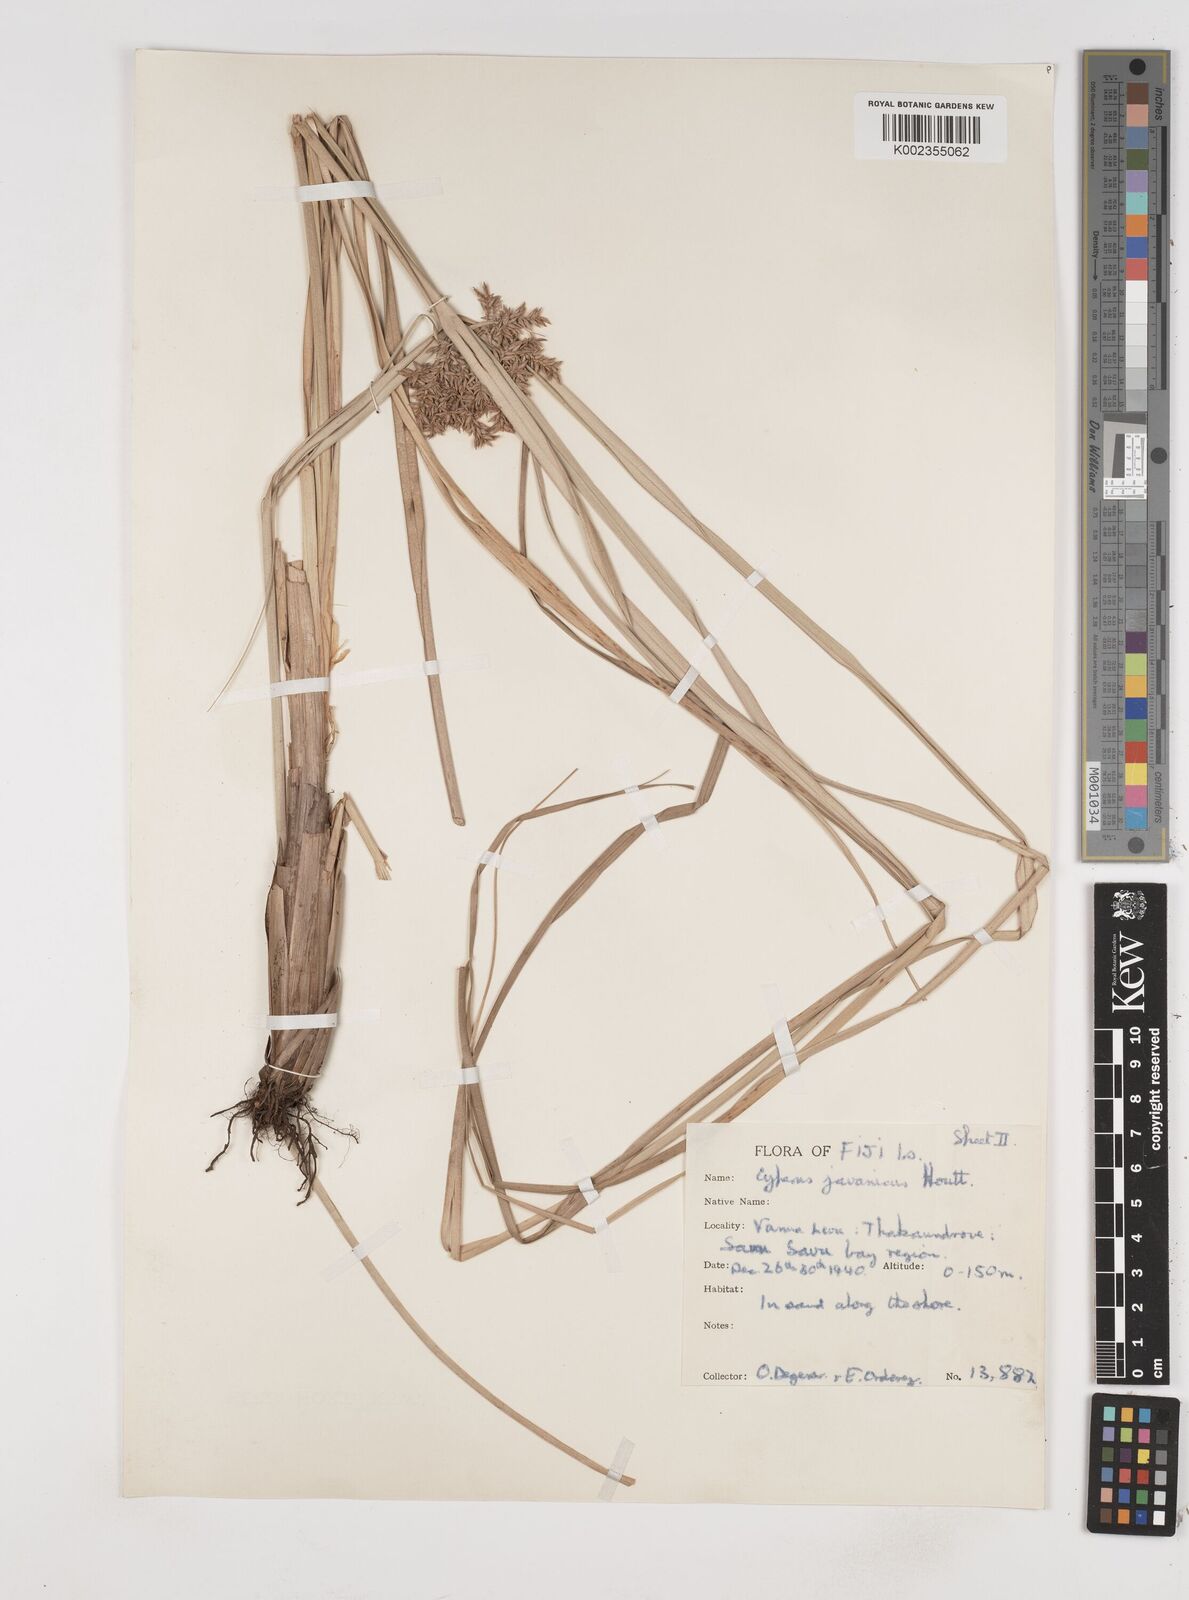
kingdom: Plantae
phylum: Tracheophyta
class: Liliopsida
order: Poales
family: Cyperaceae
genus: Cyperus
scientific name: Cyperus javanicus
